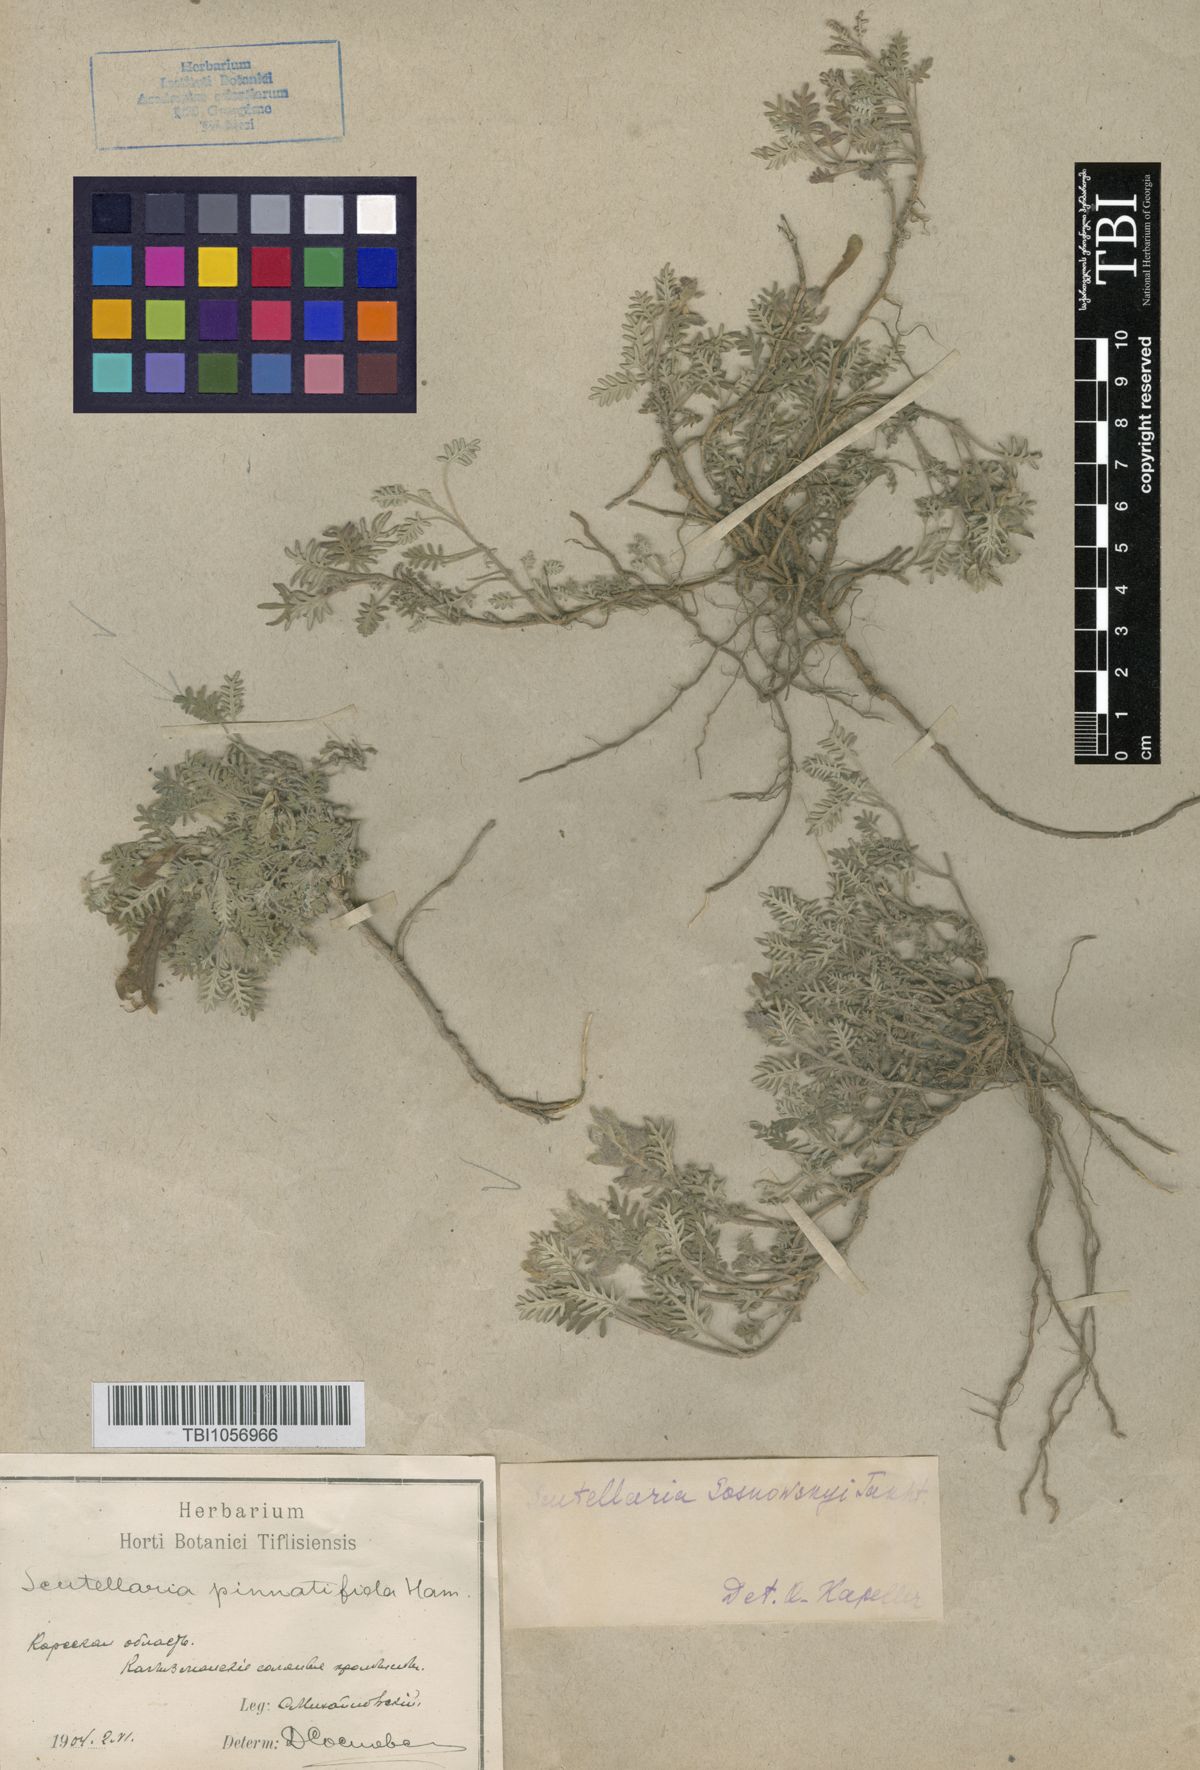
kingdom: Plantae
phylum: Tracheophyta
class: Magnoliopsida
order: Lamiales
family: Lamiaceae
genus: Scutellaria
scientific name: Scutellaria sosnowskyi
